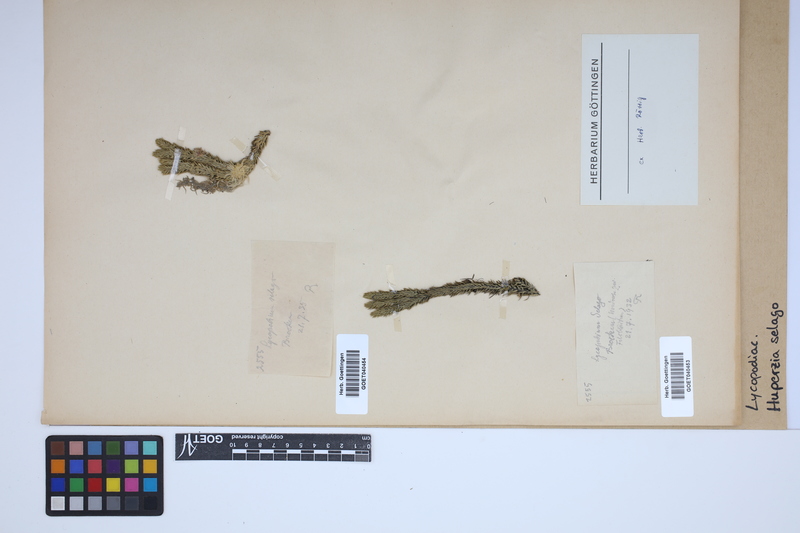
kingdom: Plantae
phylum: Tracheophyta
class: Lycopodiopsida
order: Lycopodiales
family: Lycopodiaceae
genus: Huperzia
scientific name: Huperzia selago
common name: Northern firmoss
